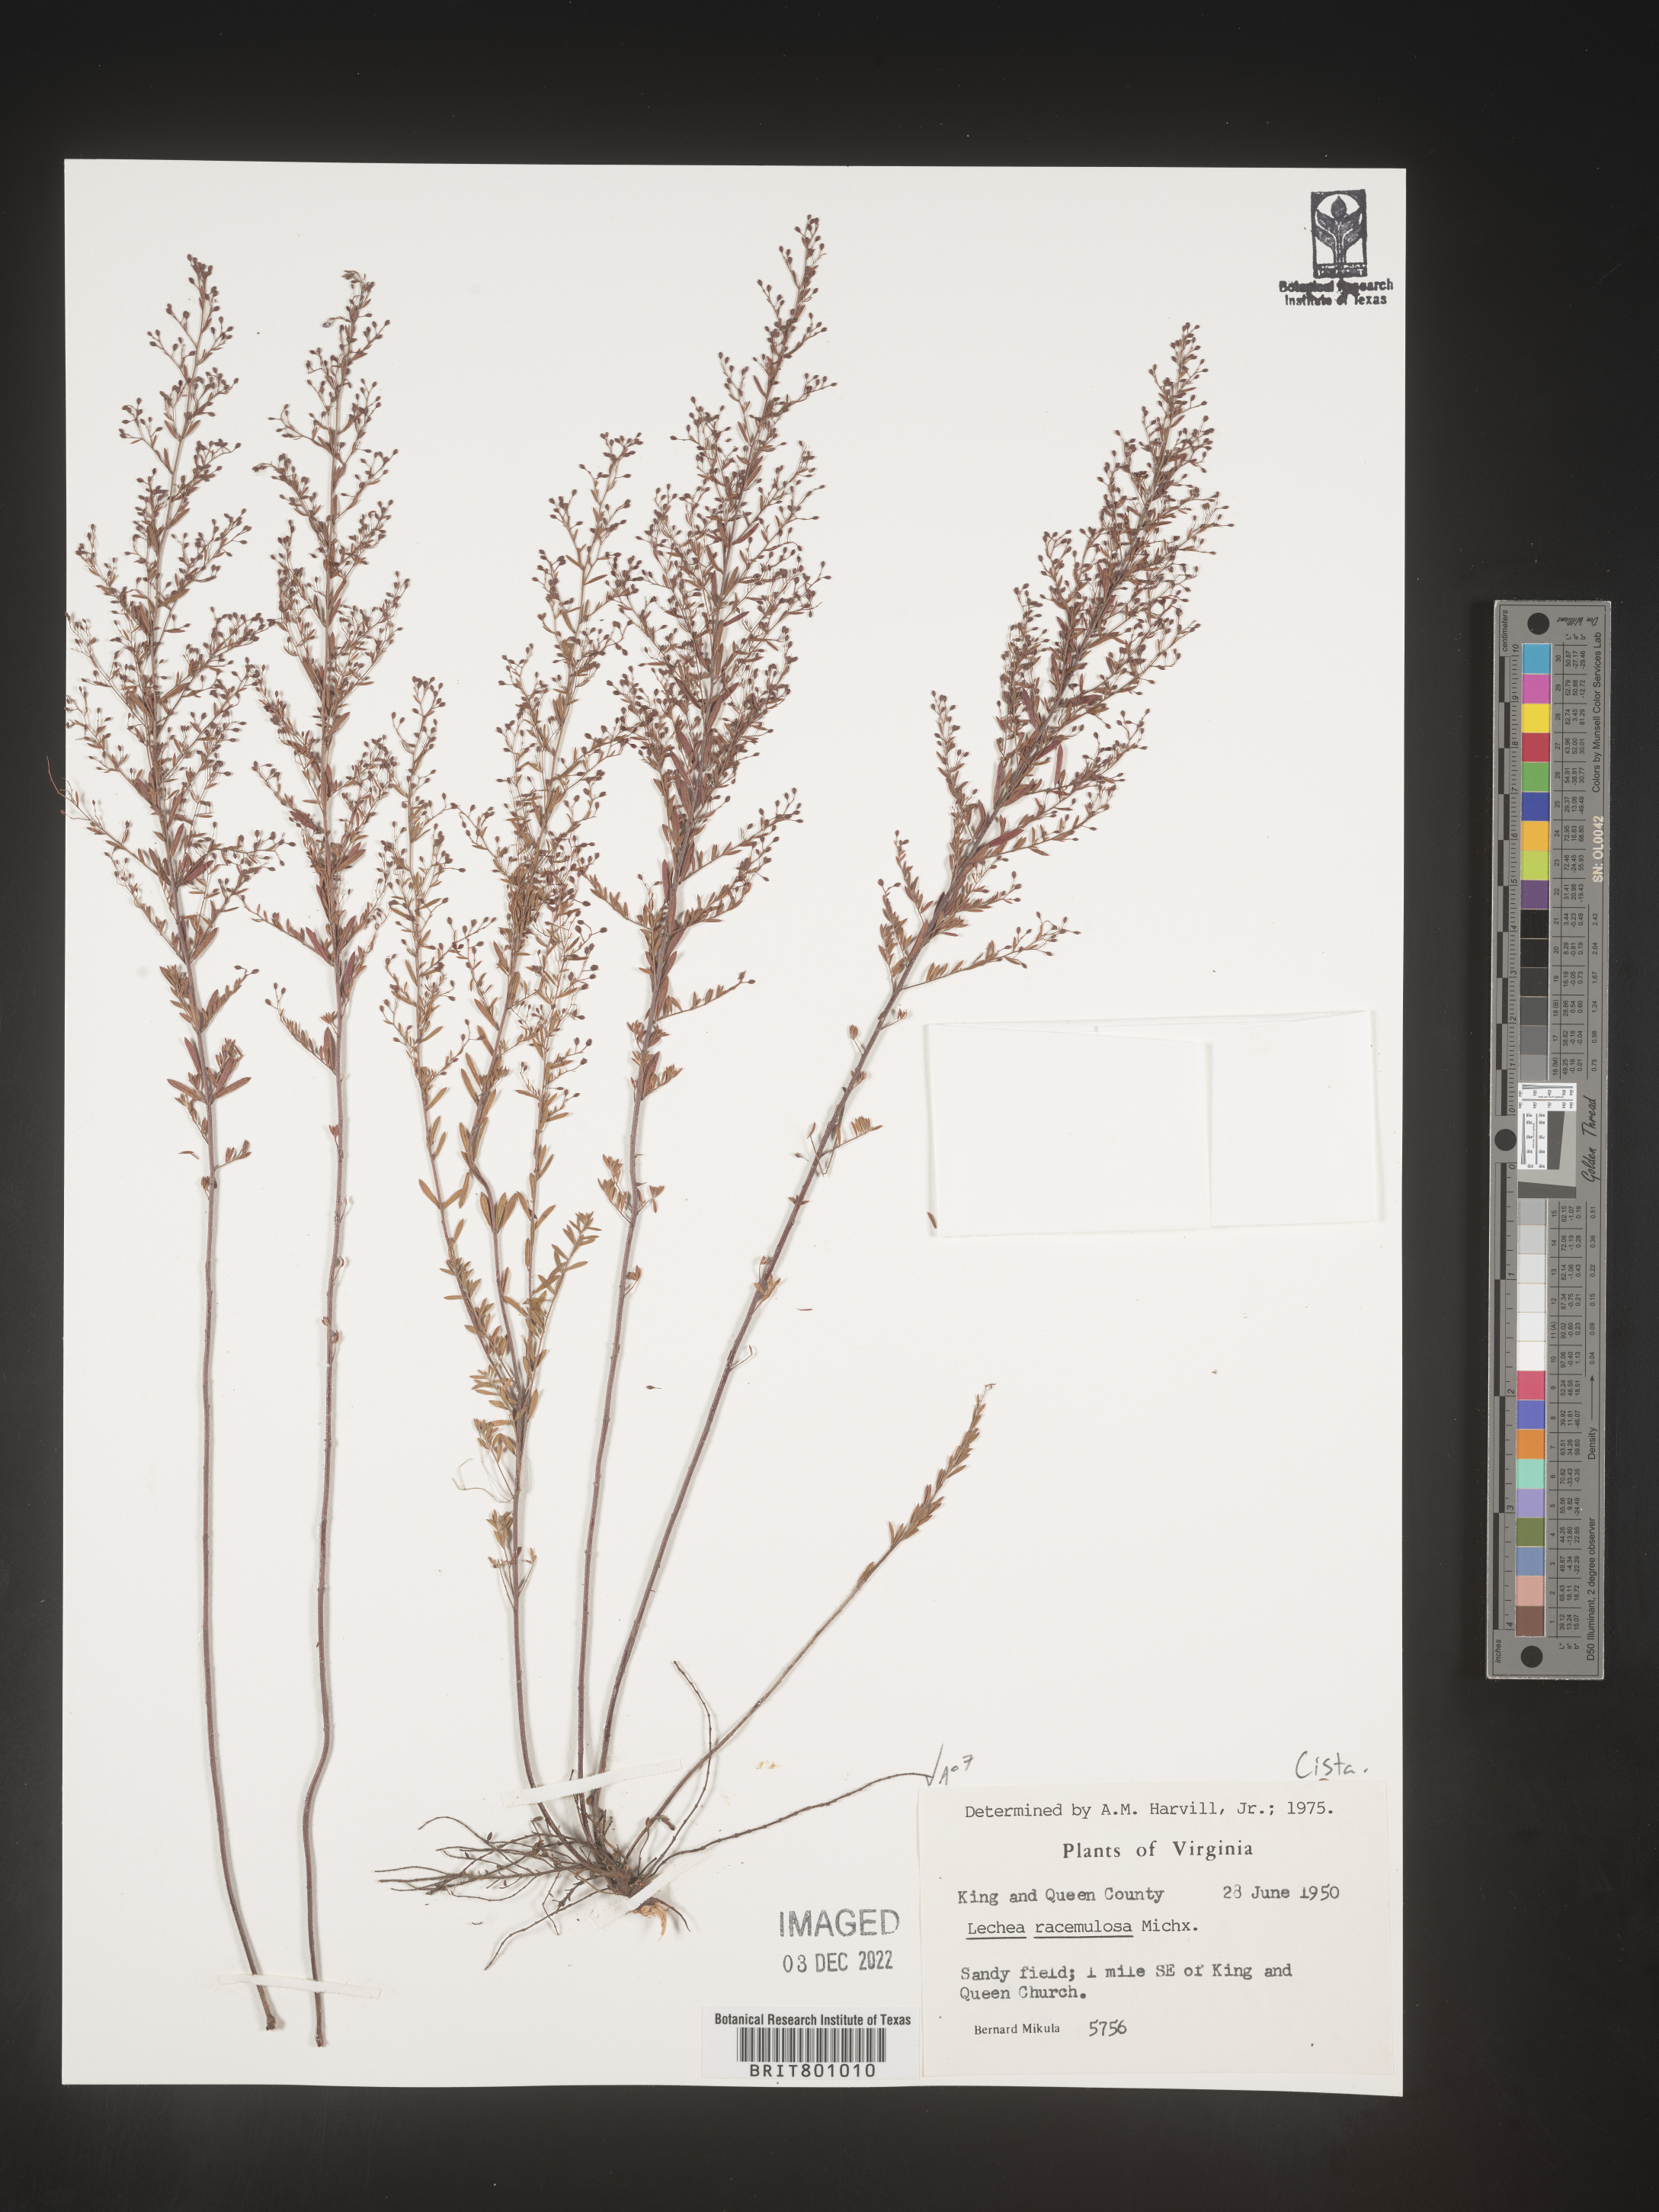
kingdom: Plantae
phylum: Tracheophyta
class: Magnoliopsida
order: Malvales
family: Cistaceae
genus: Lechea
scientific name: Lechea racemulosa
